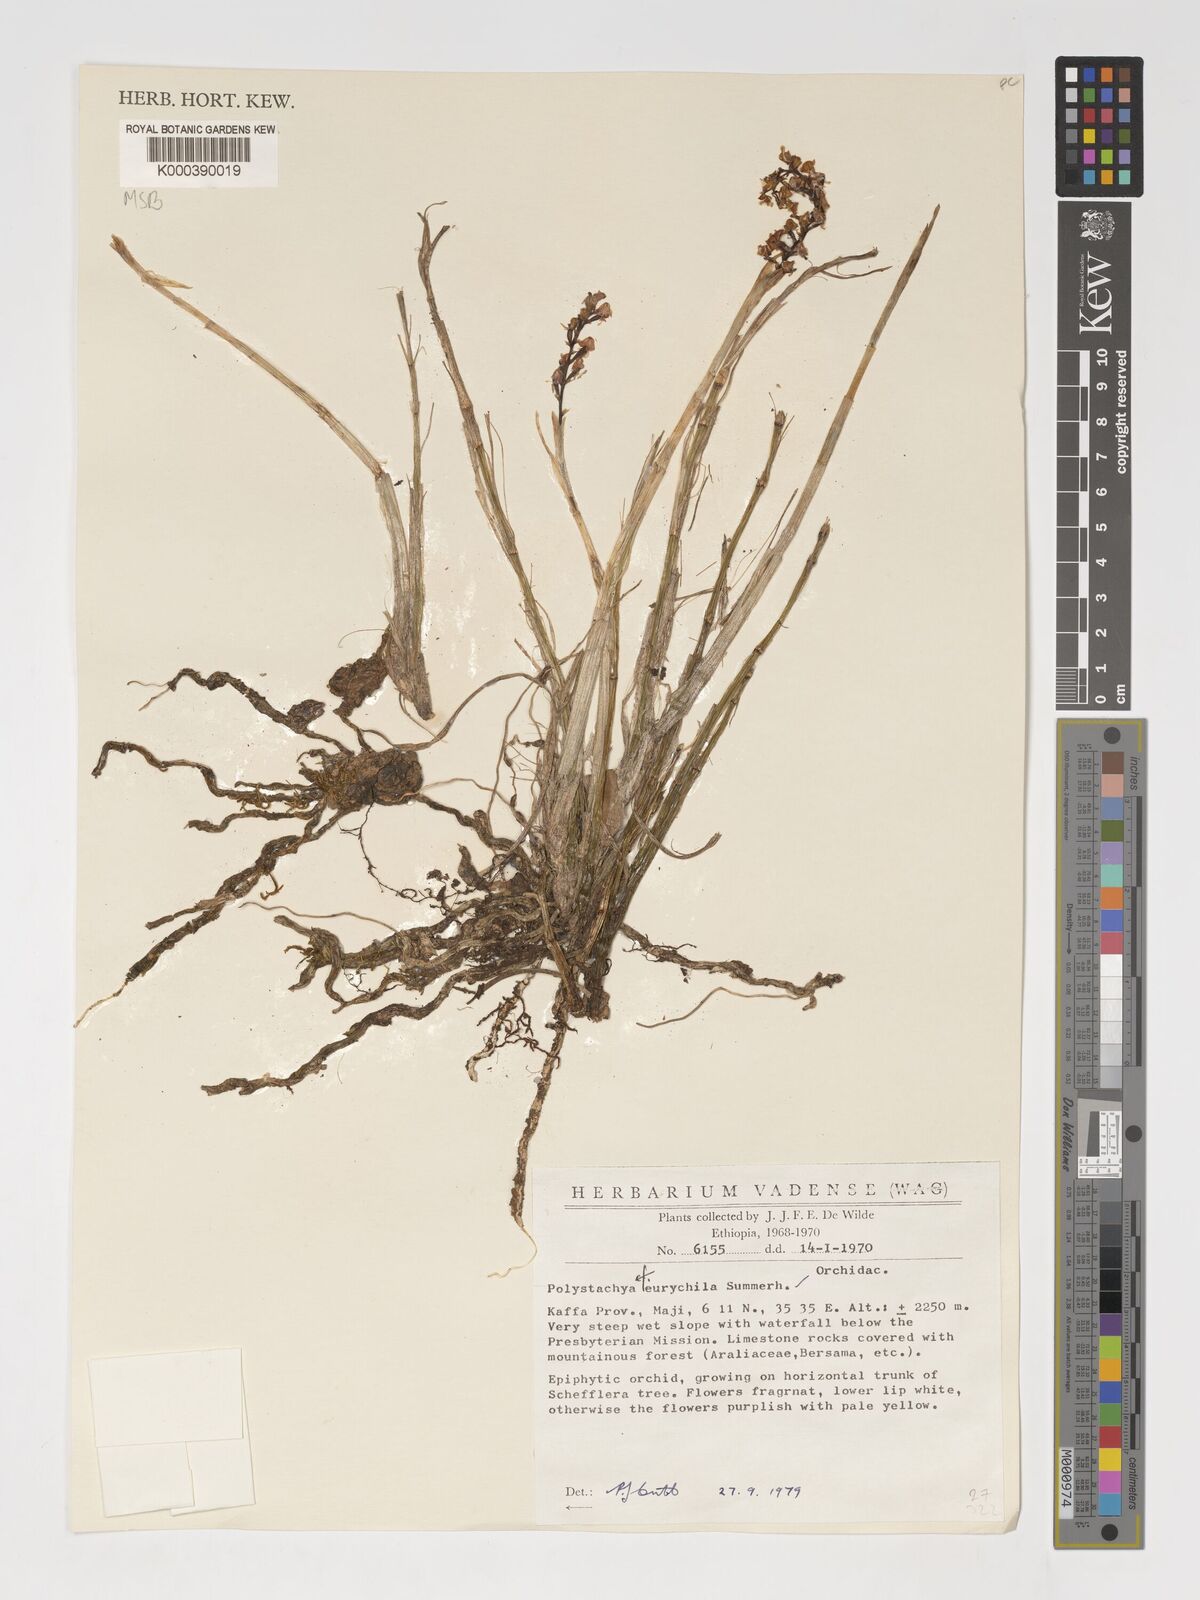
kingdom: Plantae
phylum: Tracheophyta
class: Liliopsida
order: Asparagales
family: Orchidaceae
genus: Polystachya
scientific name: Polystachya eurychila
